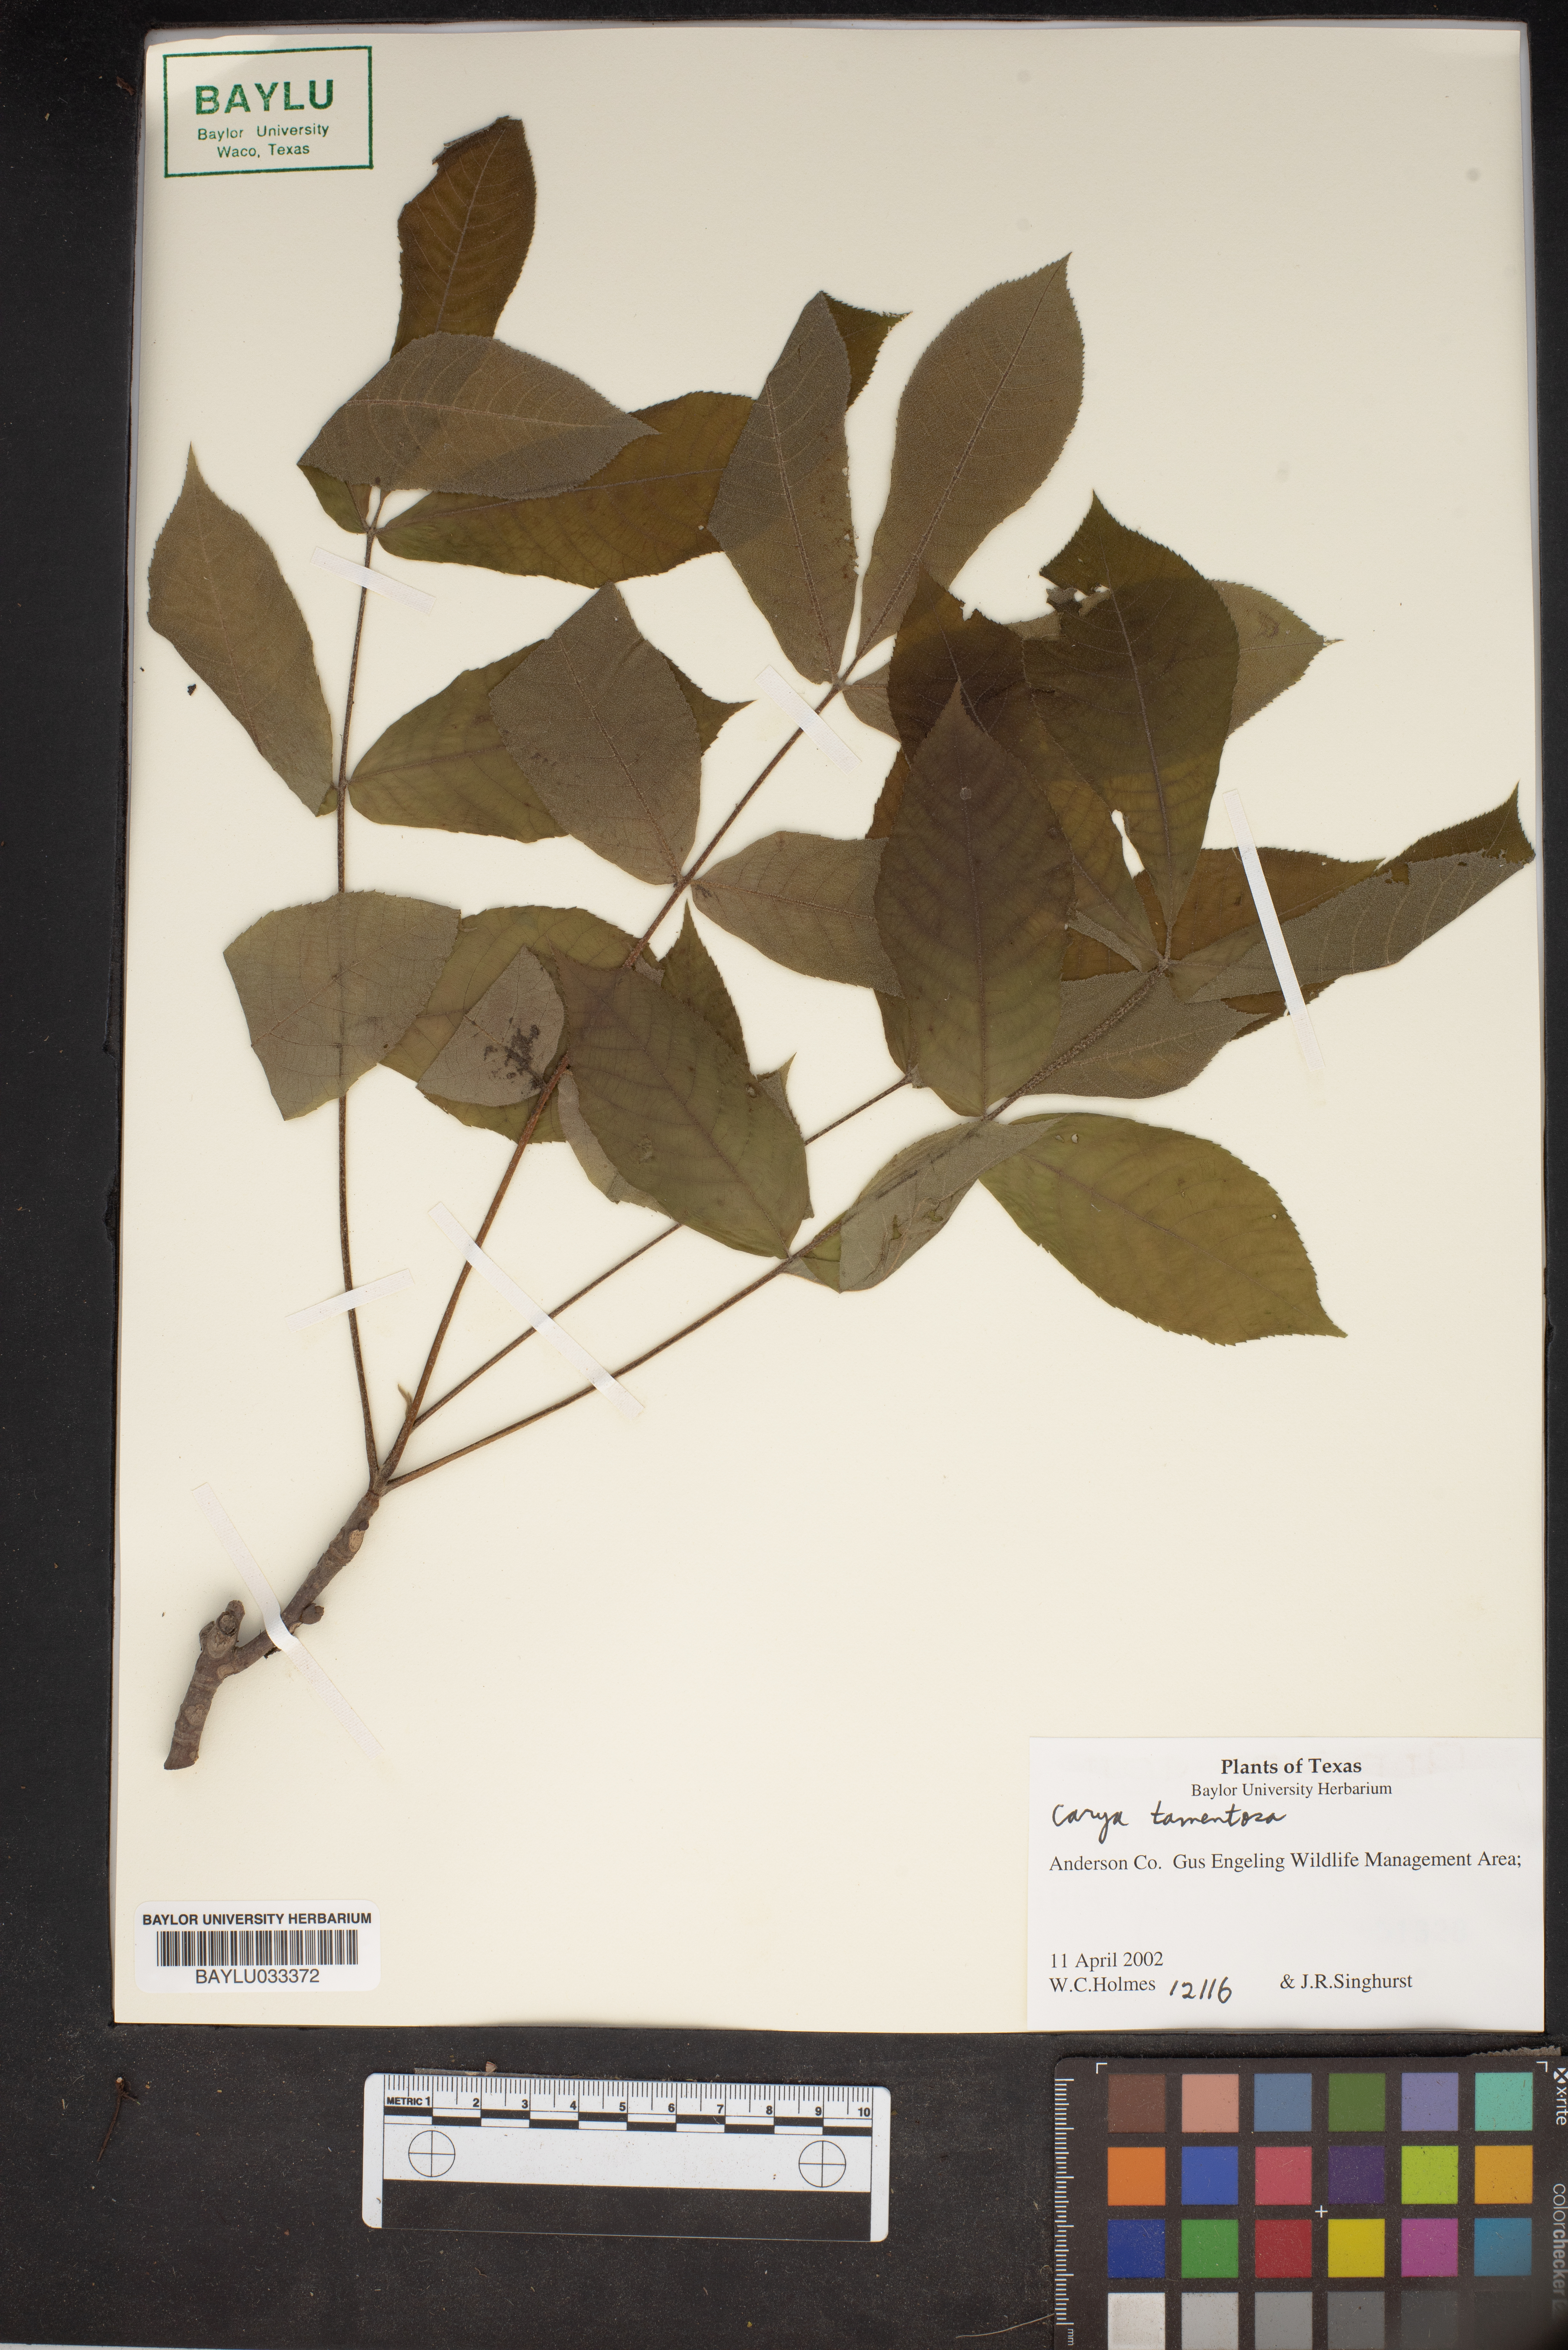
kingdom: Plantae
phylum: Tracheophyta
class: Magnoliopsida
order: Fagales
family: Juglandaceae
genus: Carya
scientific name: Carya alba
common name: Mockernut hickory
